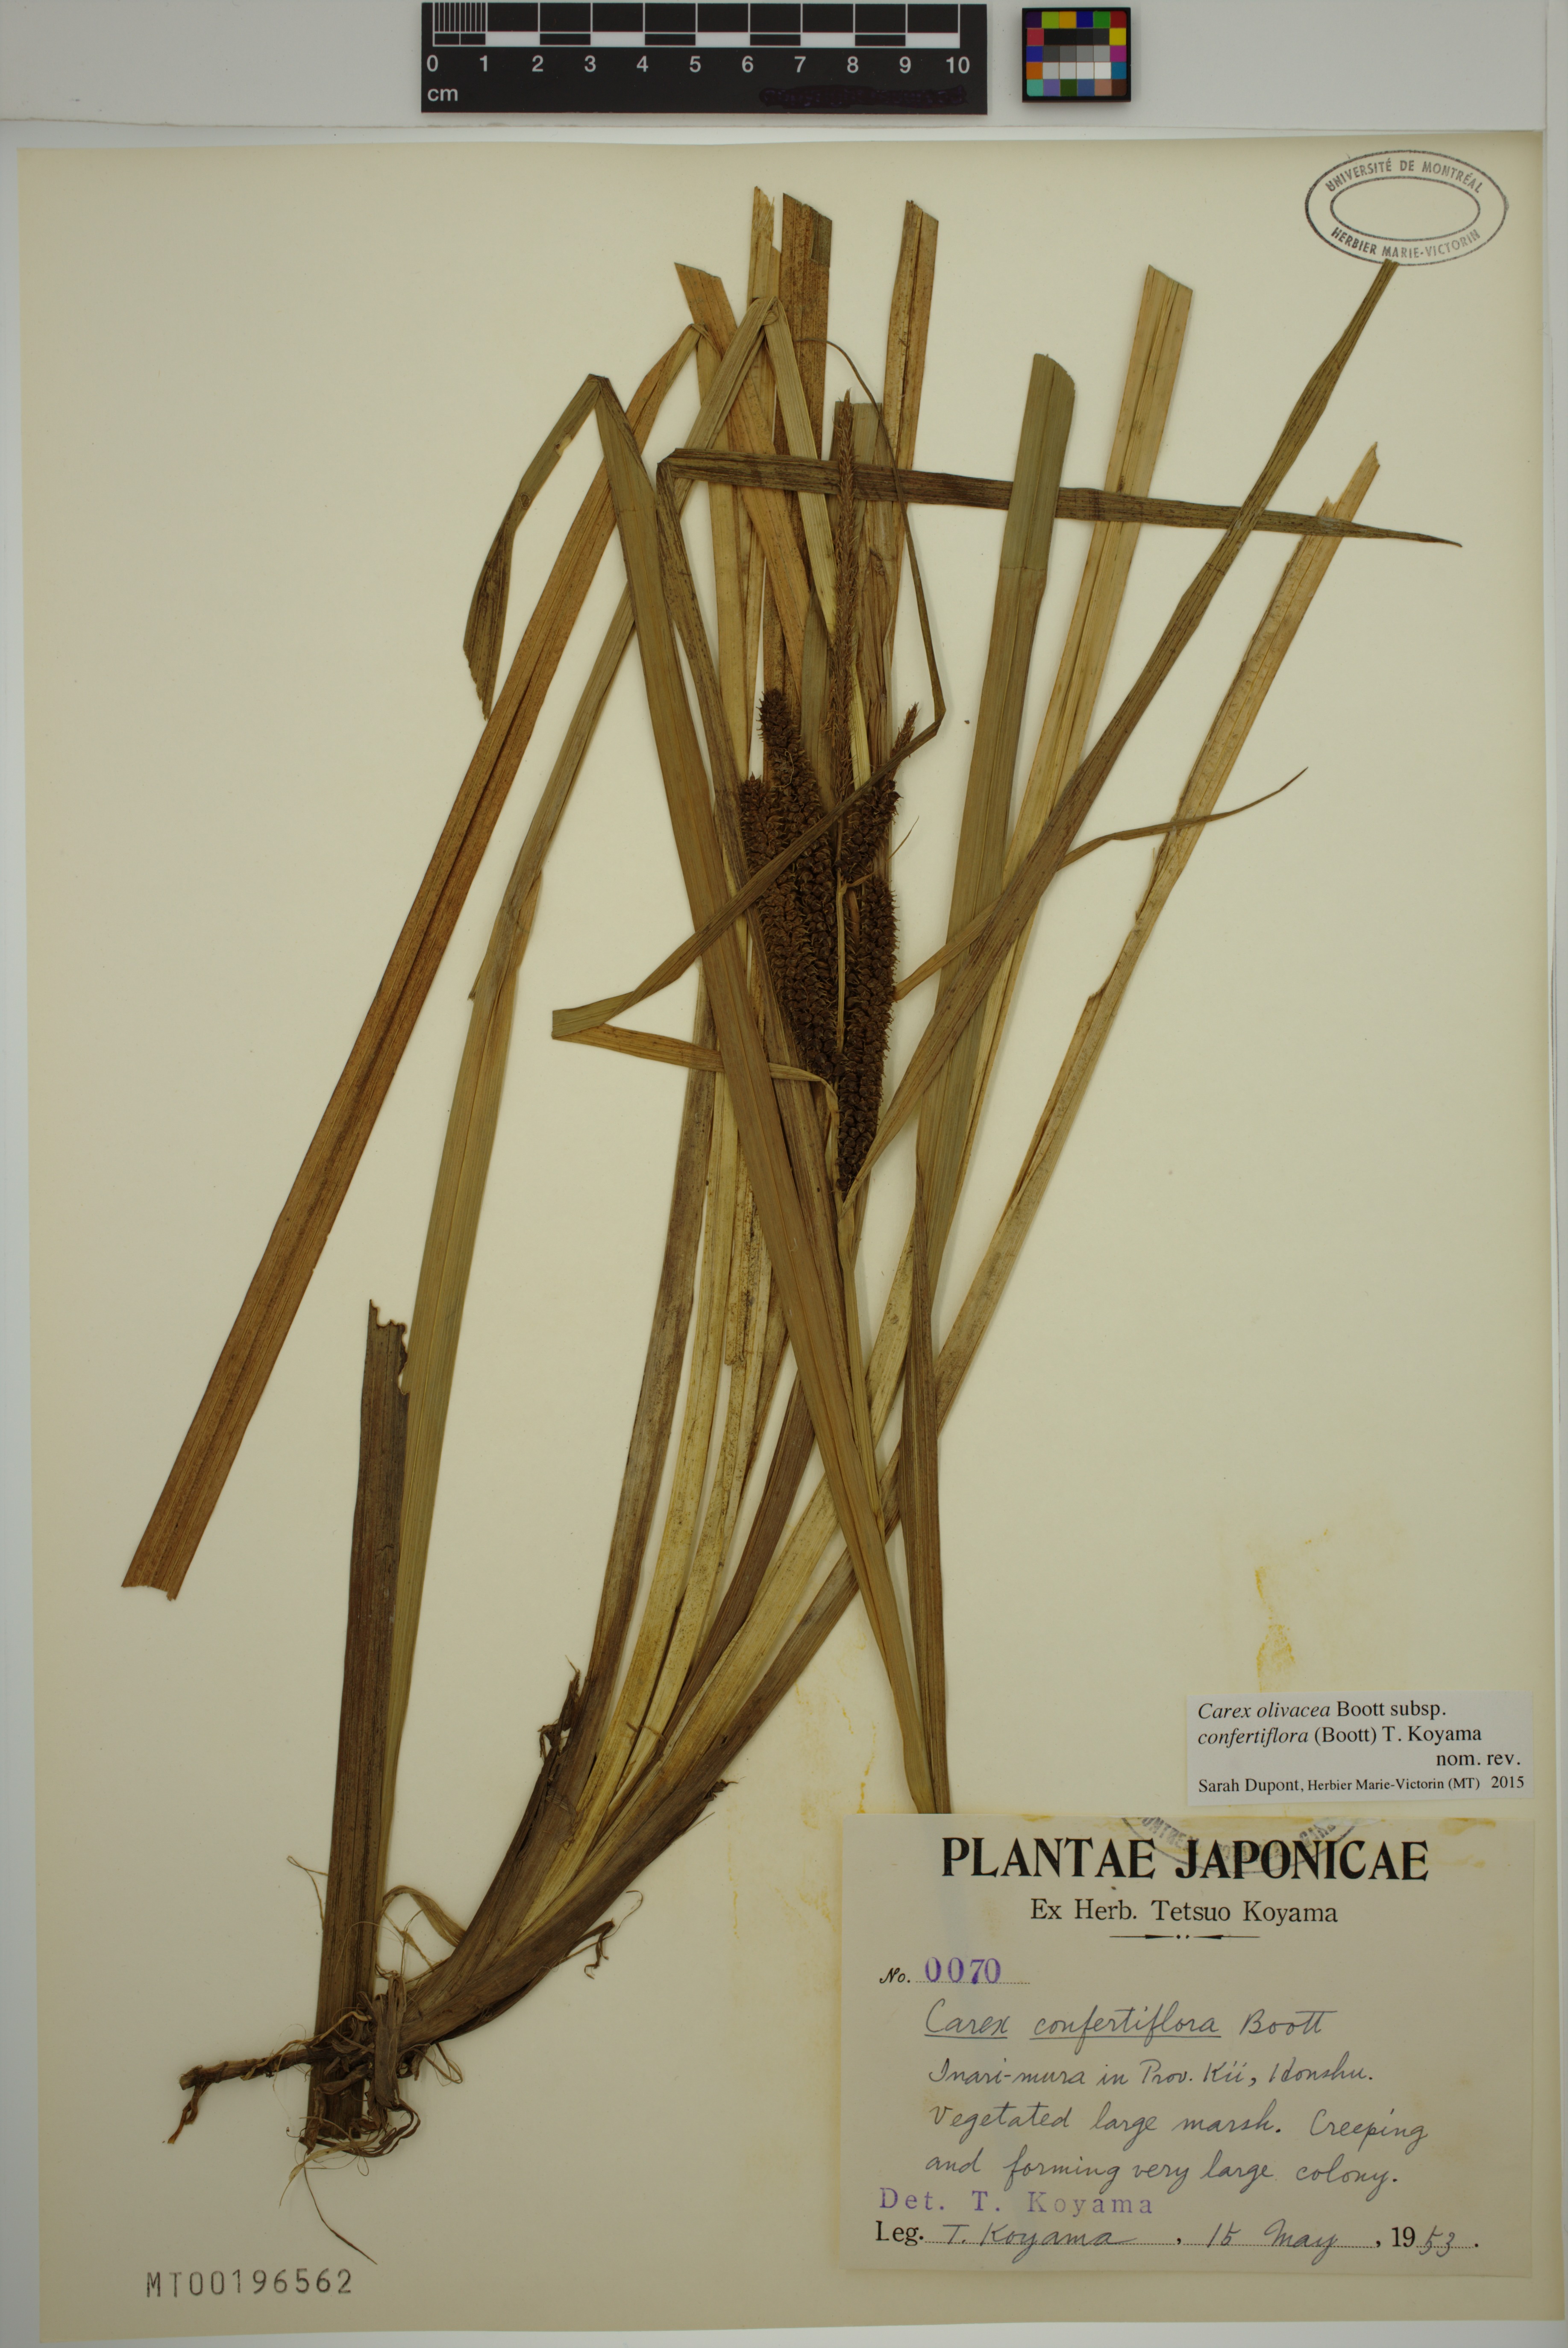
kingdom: Plantae
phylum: Tracheophyta
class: Liliopsida
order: Poales
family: Cyperaceae
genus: Carex
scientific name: Carex olivacea
